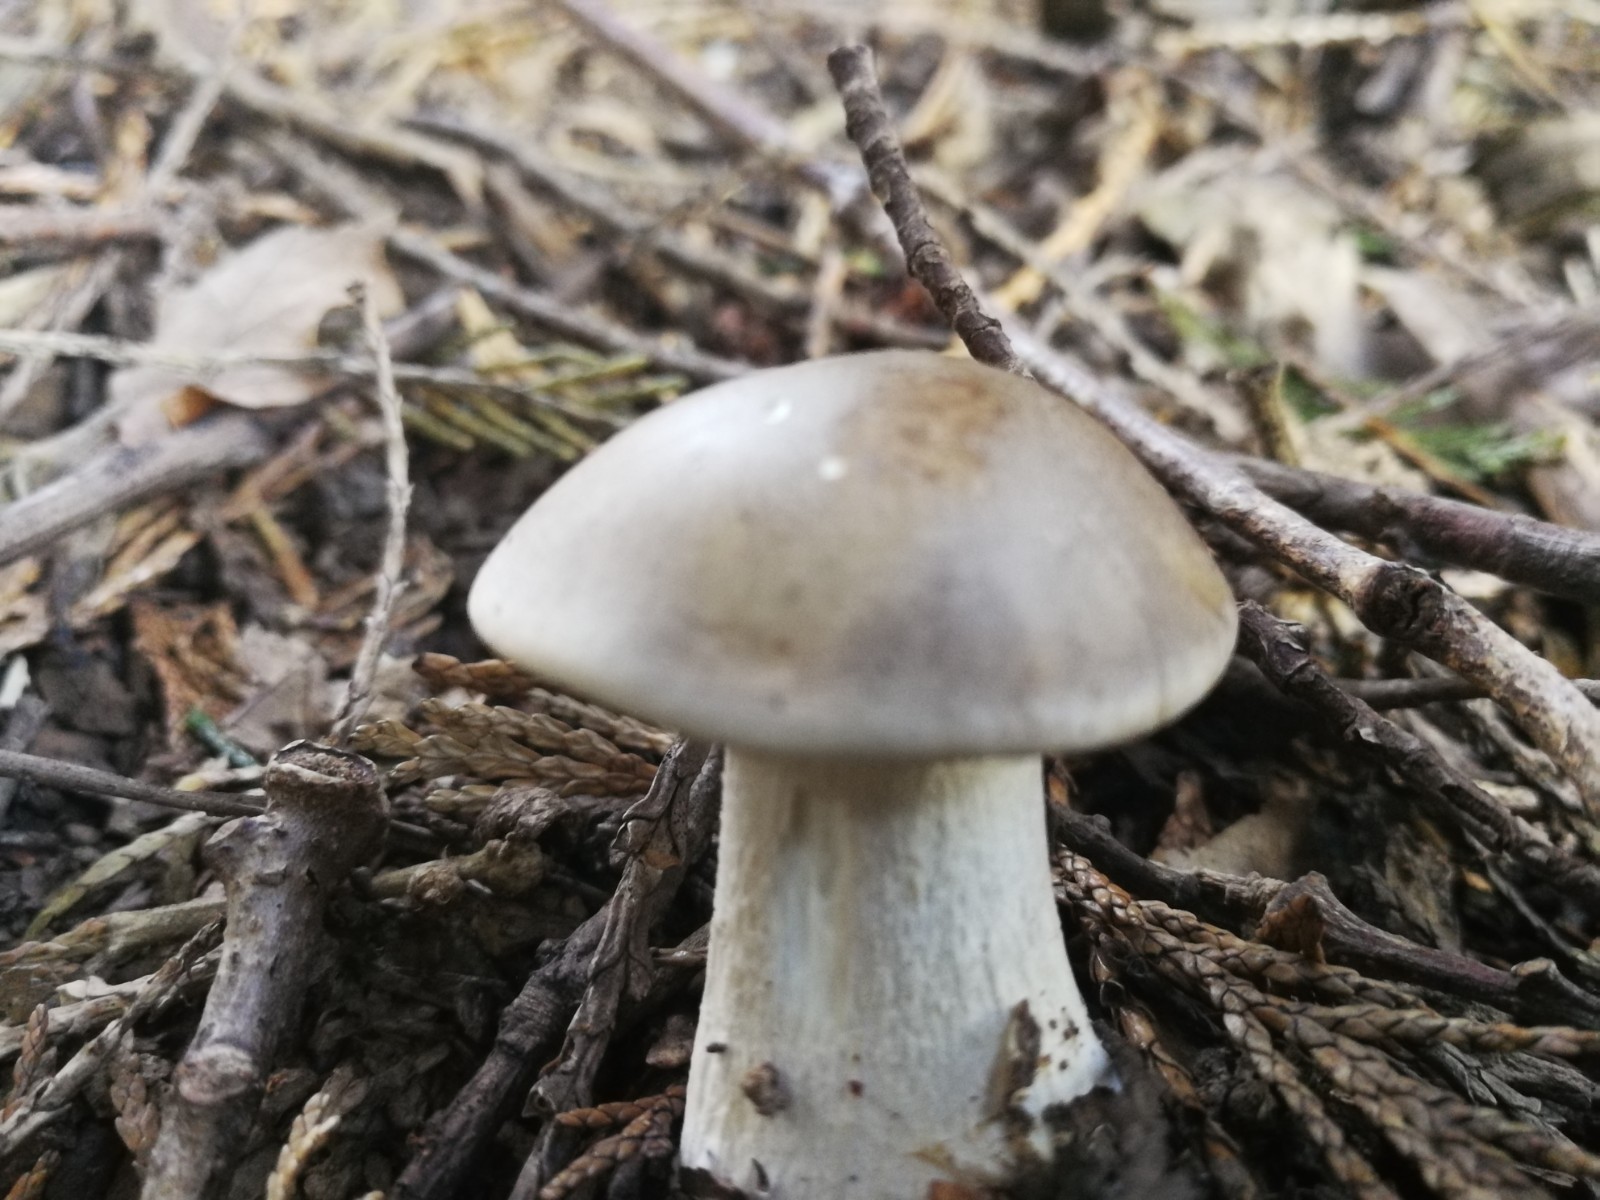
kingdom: Fungi
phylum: Basidiomycota
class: Agaricomycetes
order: Agaricales
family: Tricholomataceae
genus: Clitocybe
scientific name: Clitocybe nebularis
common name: tåge-tragthat
